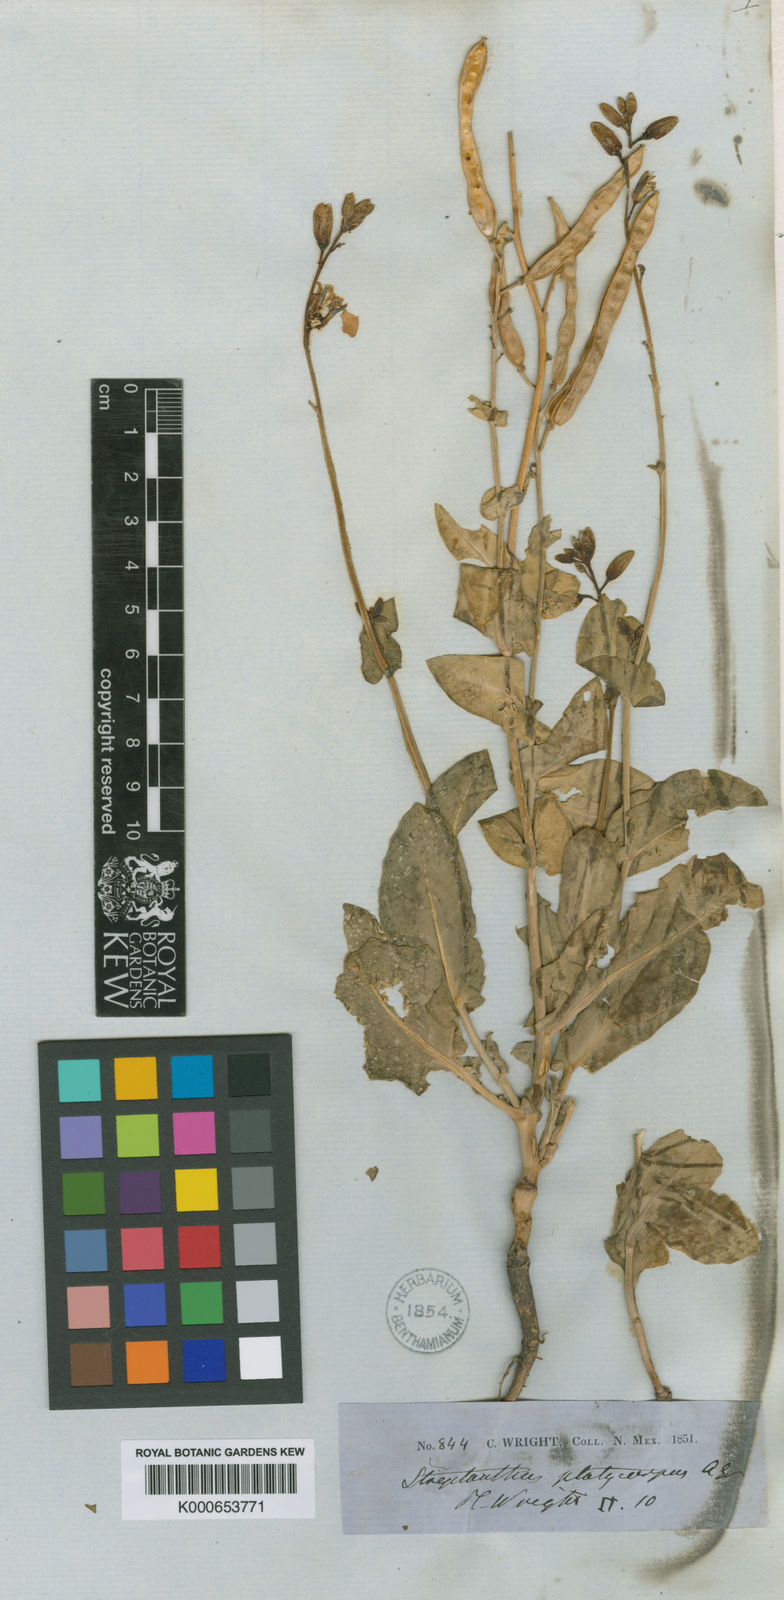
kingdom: Plantae
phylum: Tracheophyta
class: Magnoliopsida
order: Brassicales
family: Brassicaceae
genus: Streptanthus
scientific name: Streptanthus platycarpus
